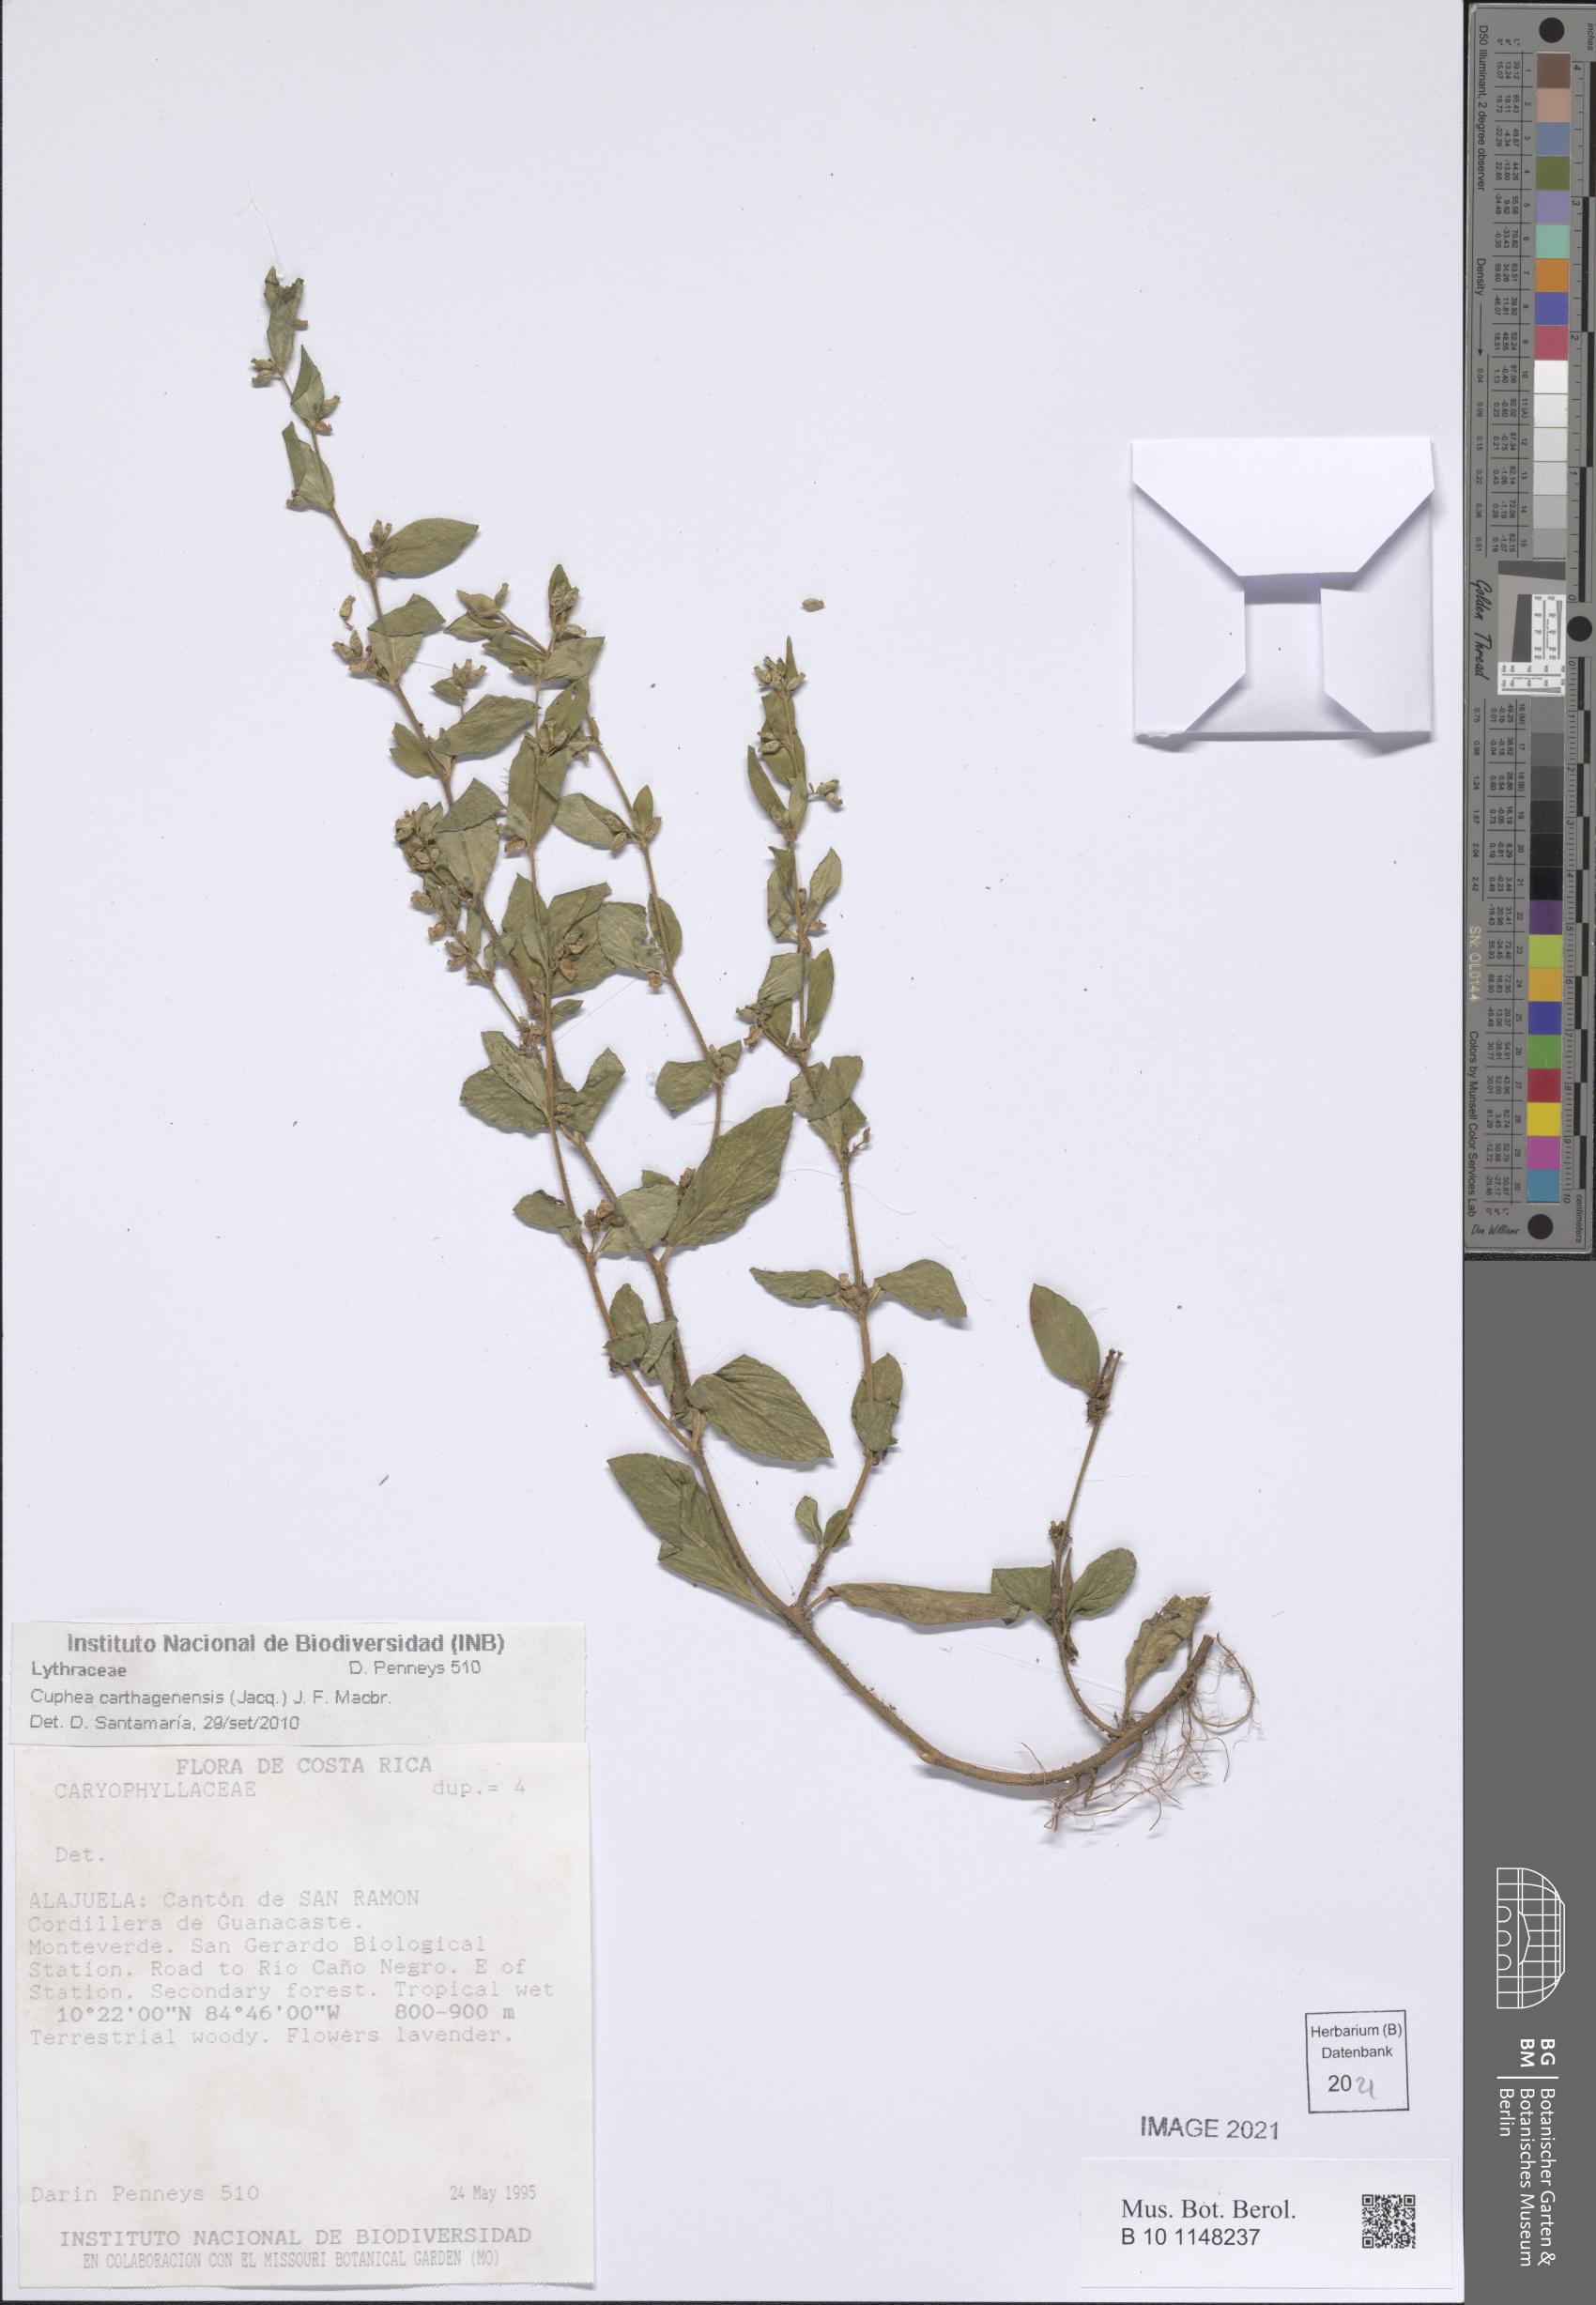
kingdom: Plantae
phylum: Tracheophyta
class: Magnoliopsida
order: Myrtales
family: Lythraceae
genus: Cuphea
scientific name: Cuphea carthagenensis
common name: Colombian waxweed
